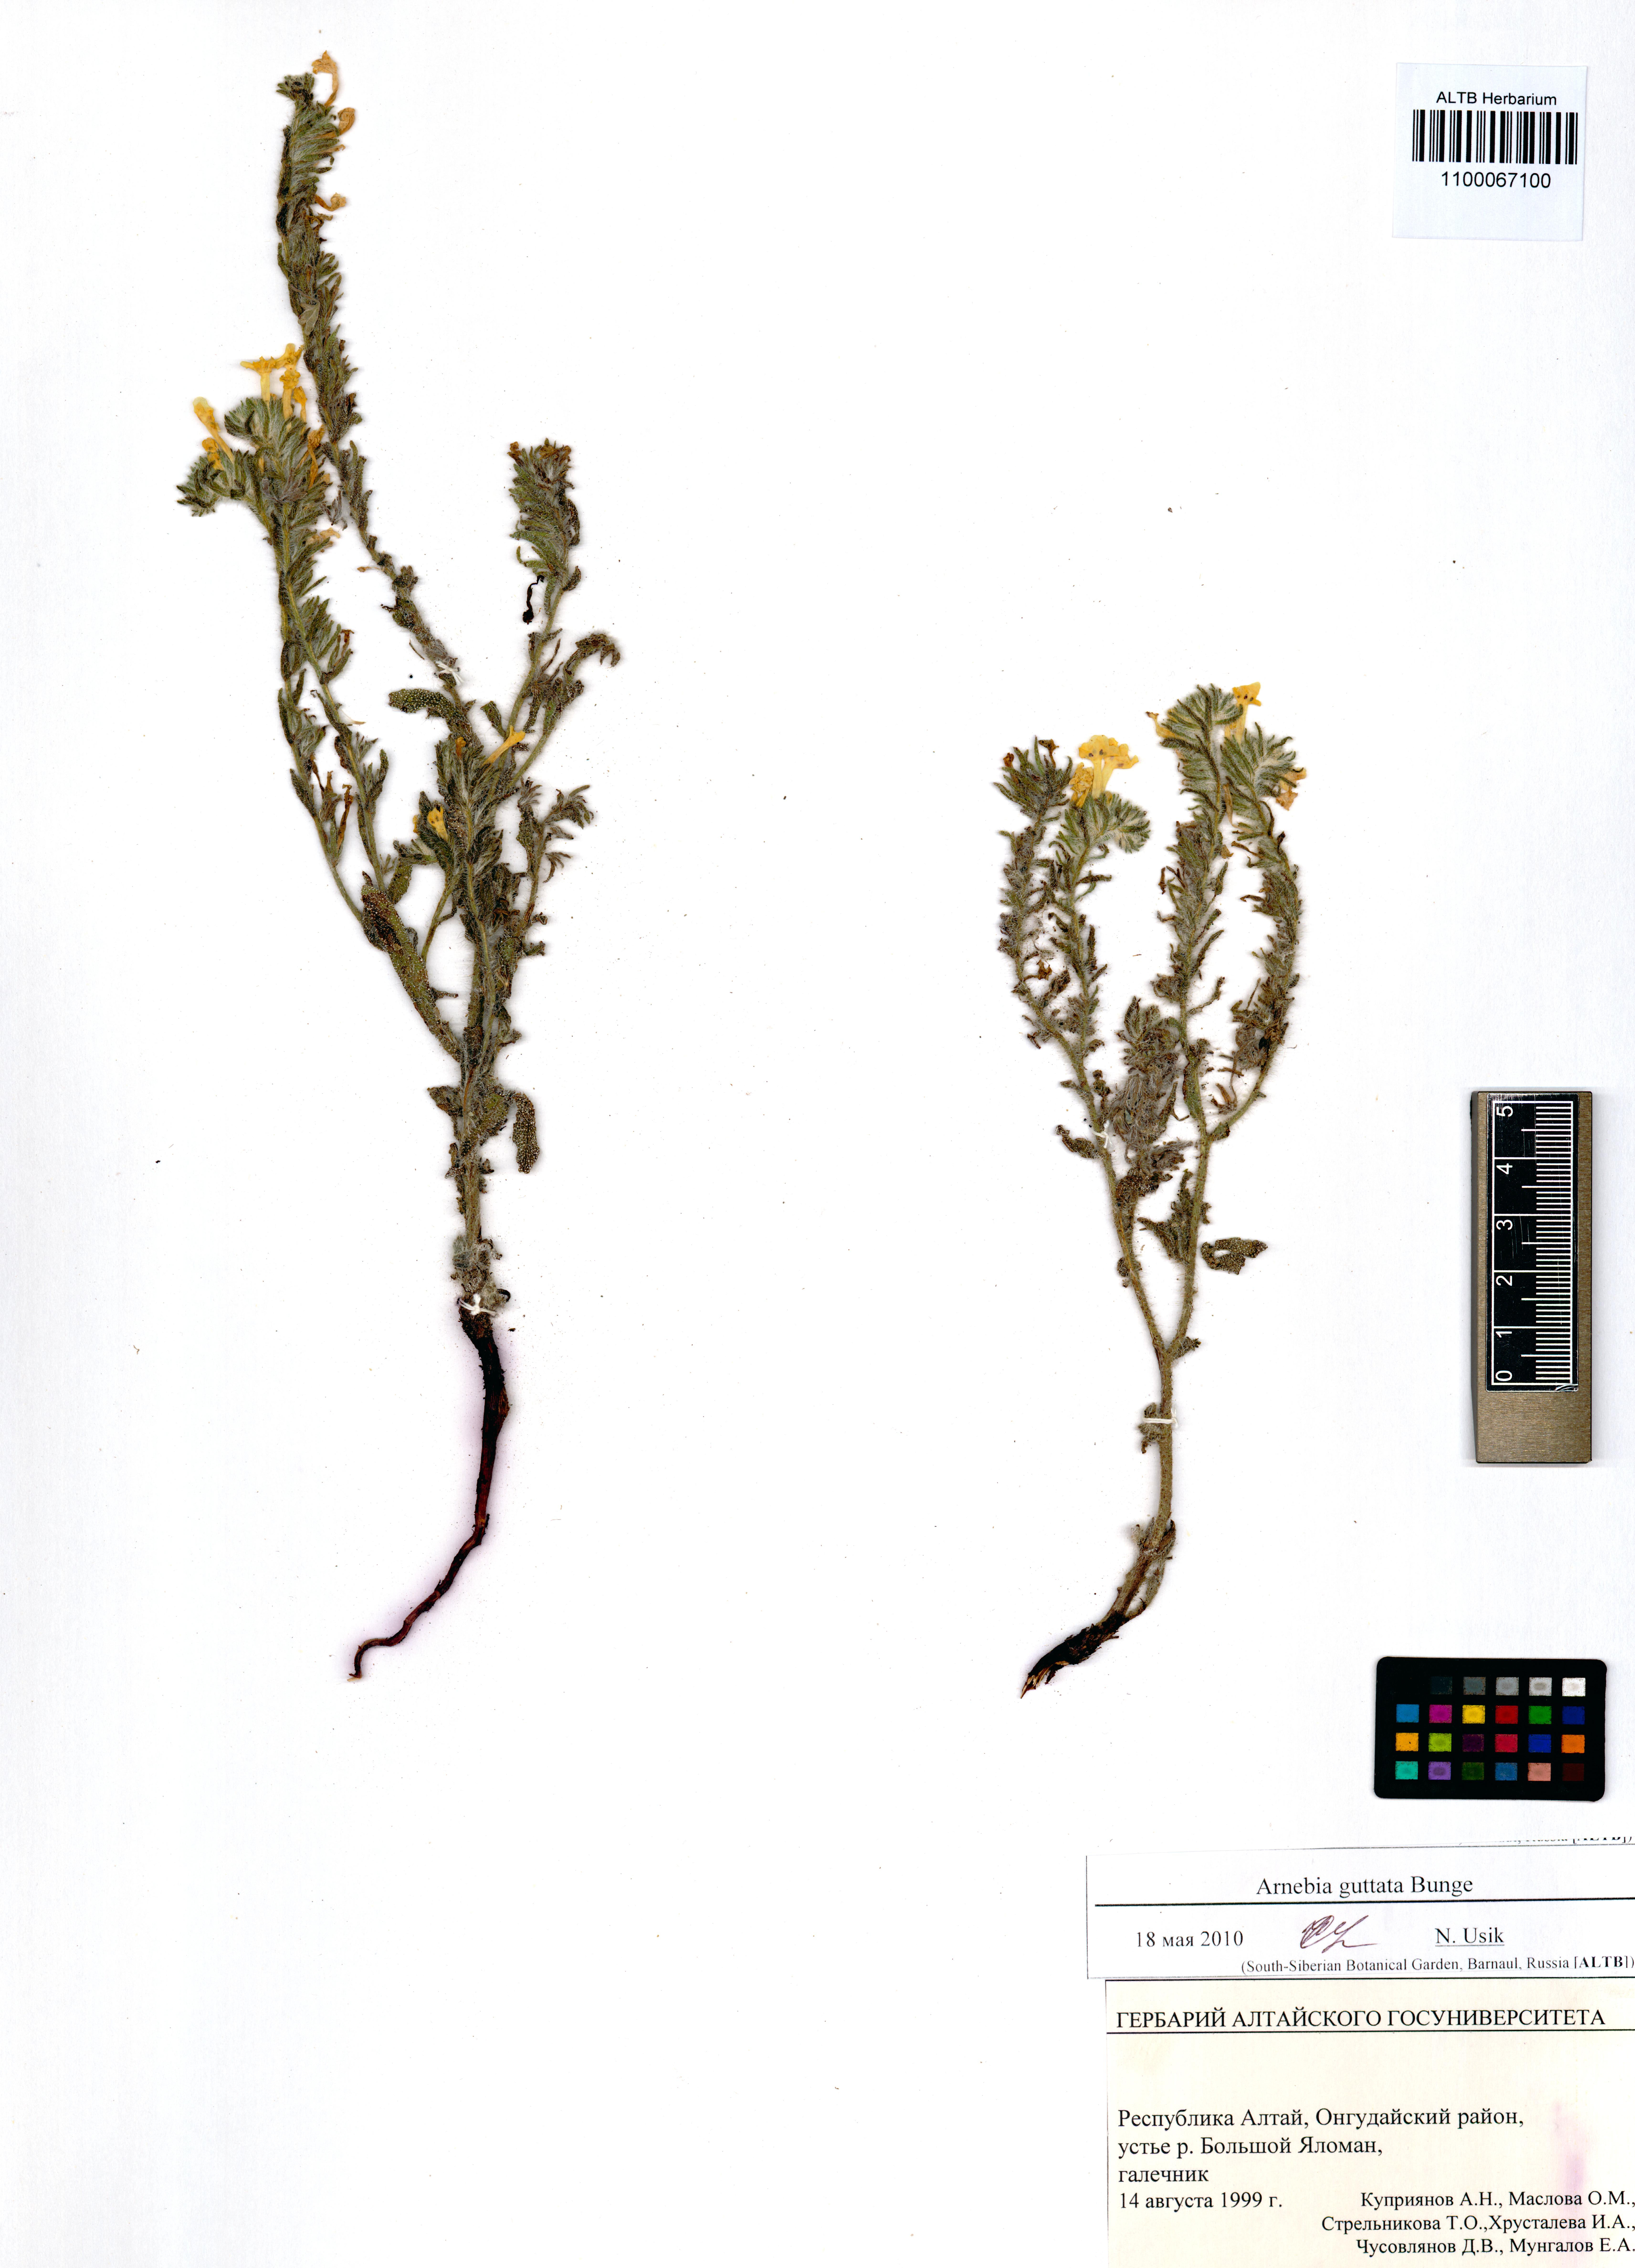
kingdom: Plantae
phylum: Tracheophyta
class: Magnoliopsida
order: Boraginales
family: Boraginaceae
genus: Arnebia
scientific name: Arnebia guttata
